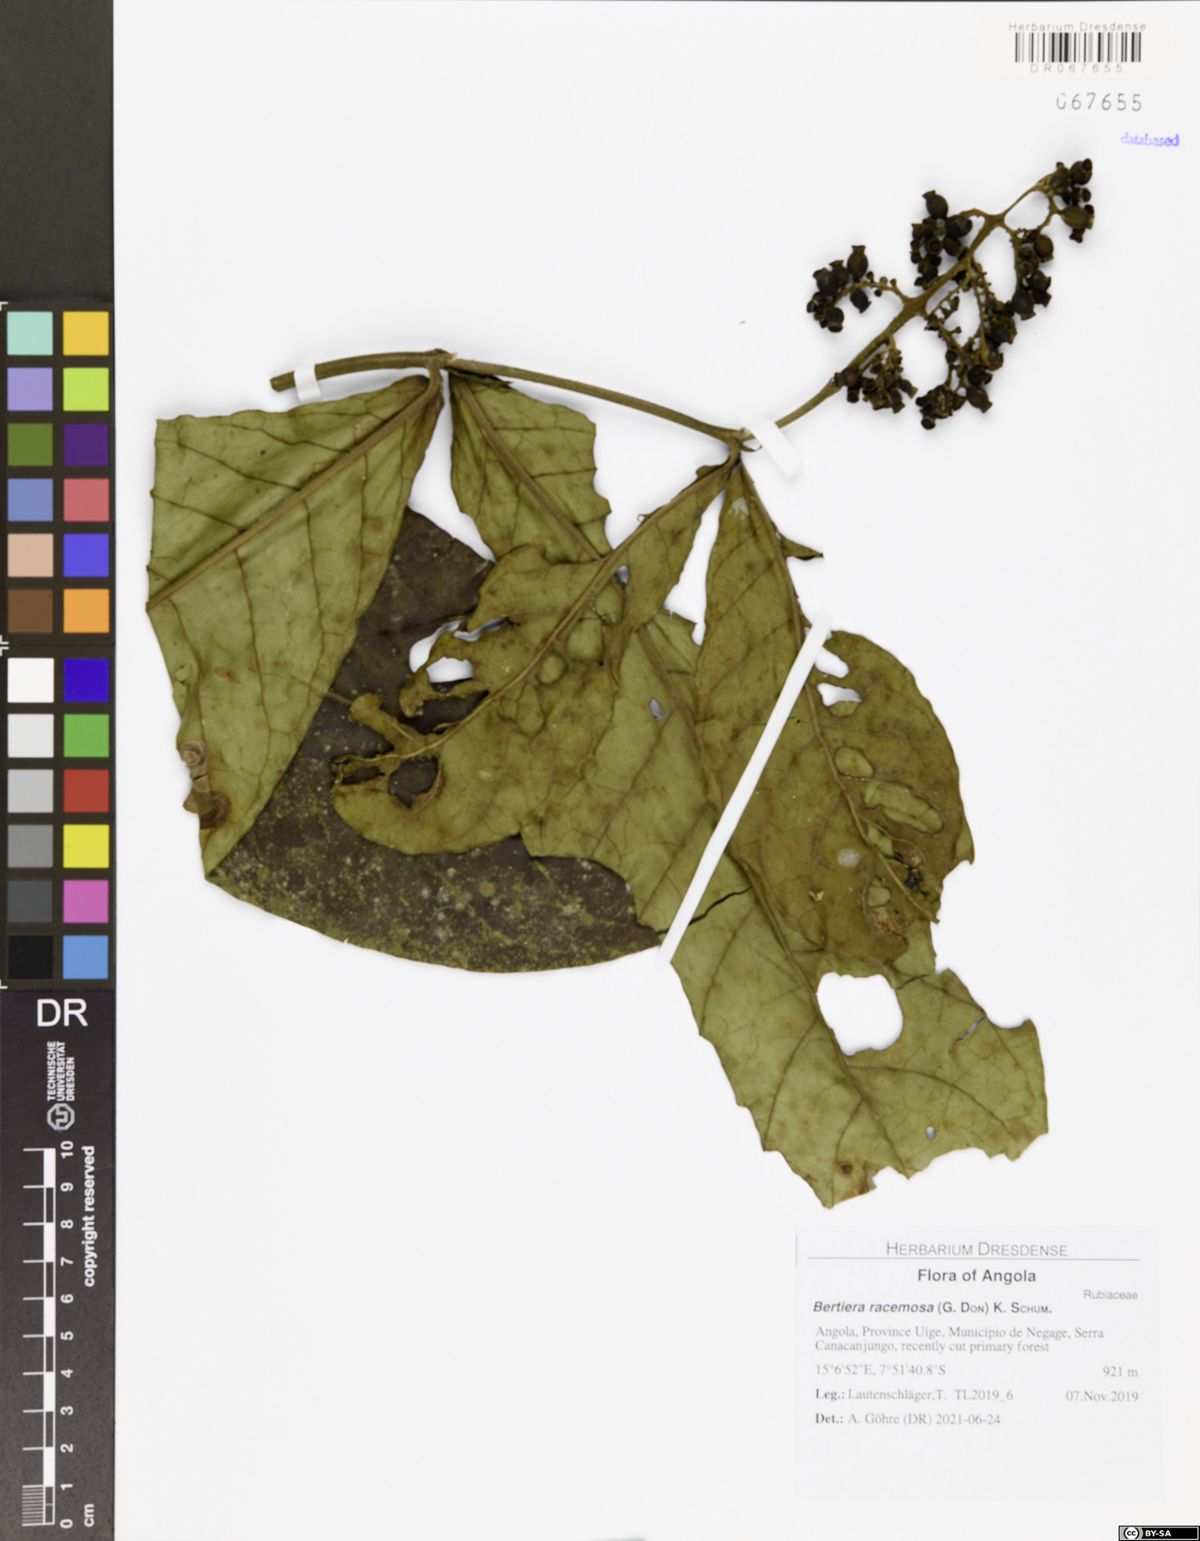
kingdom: Plantae
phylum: Tracheophyta
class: Magnoliopsida
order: Gentianales
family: Rubiaceae
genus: Bertiera
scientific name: Bertiera racemosa
